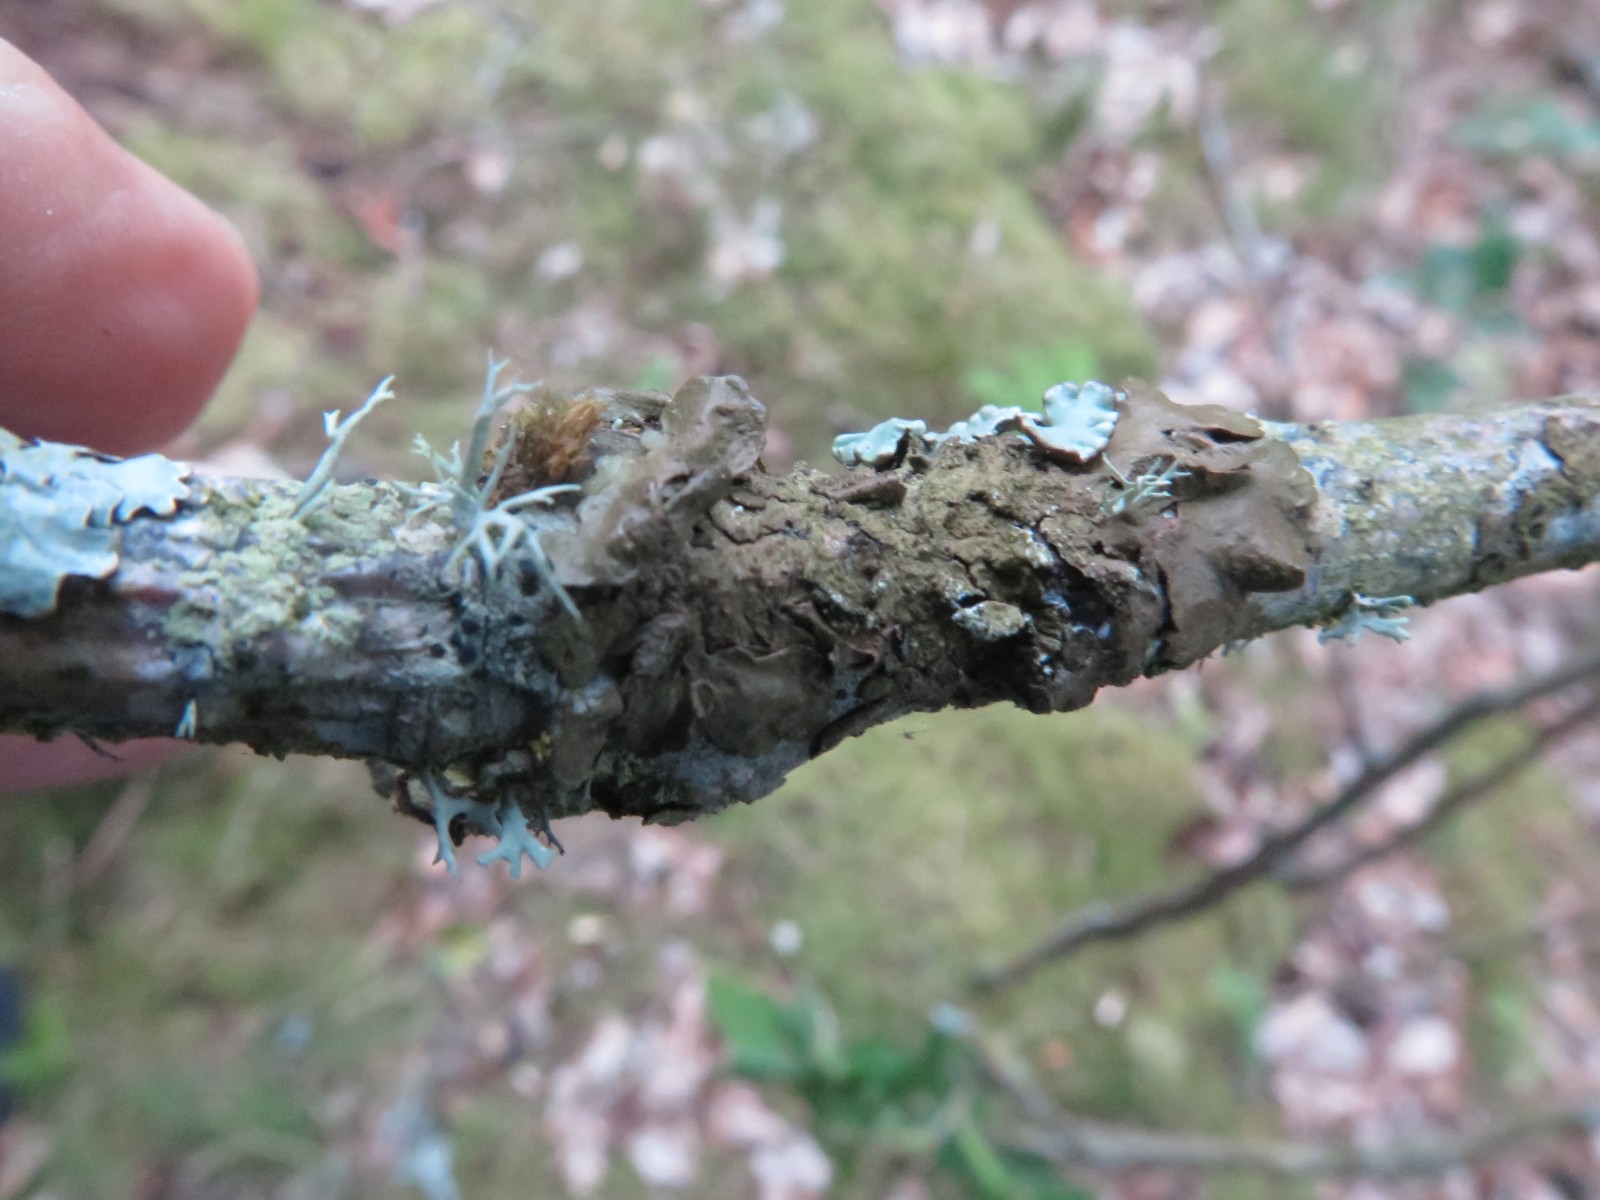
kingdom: Fungi
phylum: Ascomycota
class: Lecanoromycetes
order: Lecanorales
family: Parmeliaceae
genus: Melanelixia
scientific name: Melanelixia subaurifera
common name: guldpudret skållav
